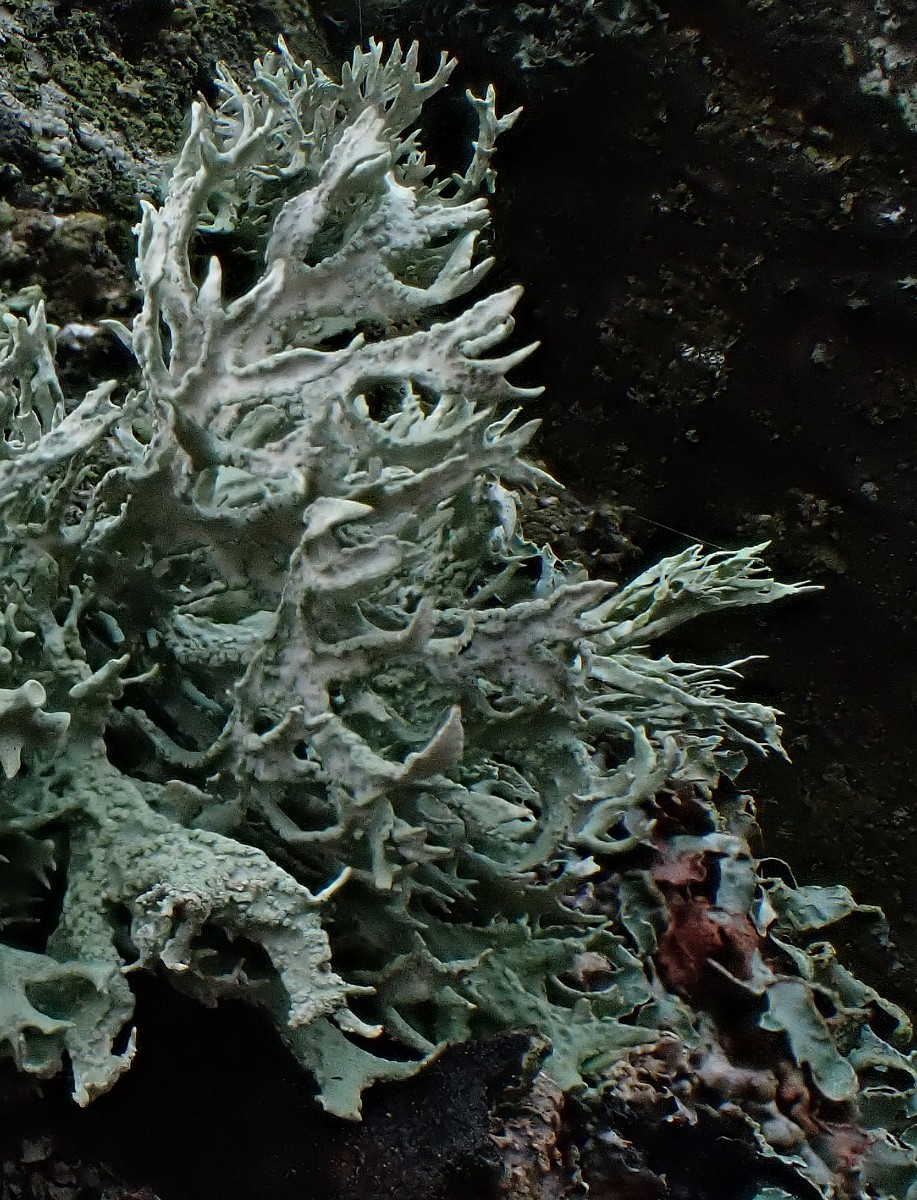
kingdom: Fungi
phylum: Ascomycota
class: Lecanoromycetes
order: Lecanorales
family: Parmeliaceae
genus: Evernia
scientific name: Evernia prunastri
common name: almindelig slåenlav
